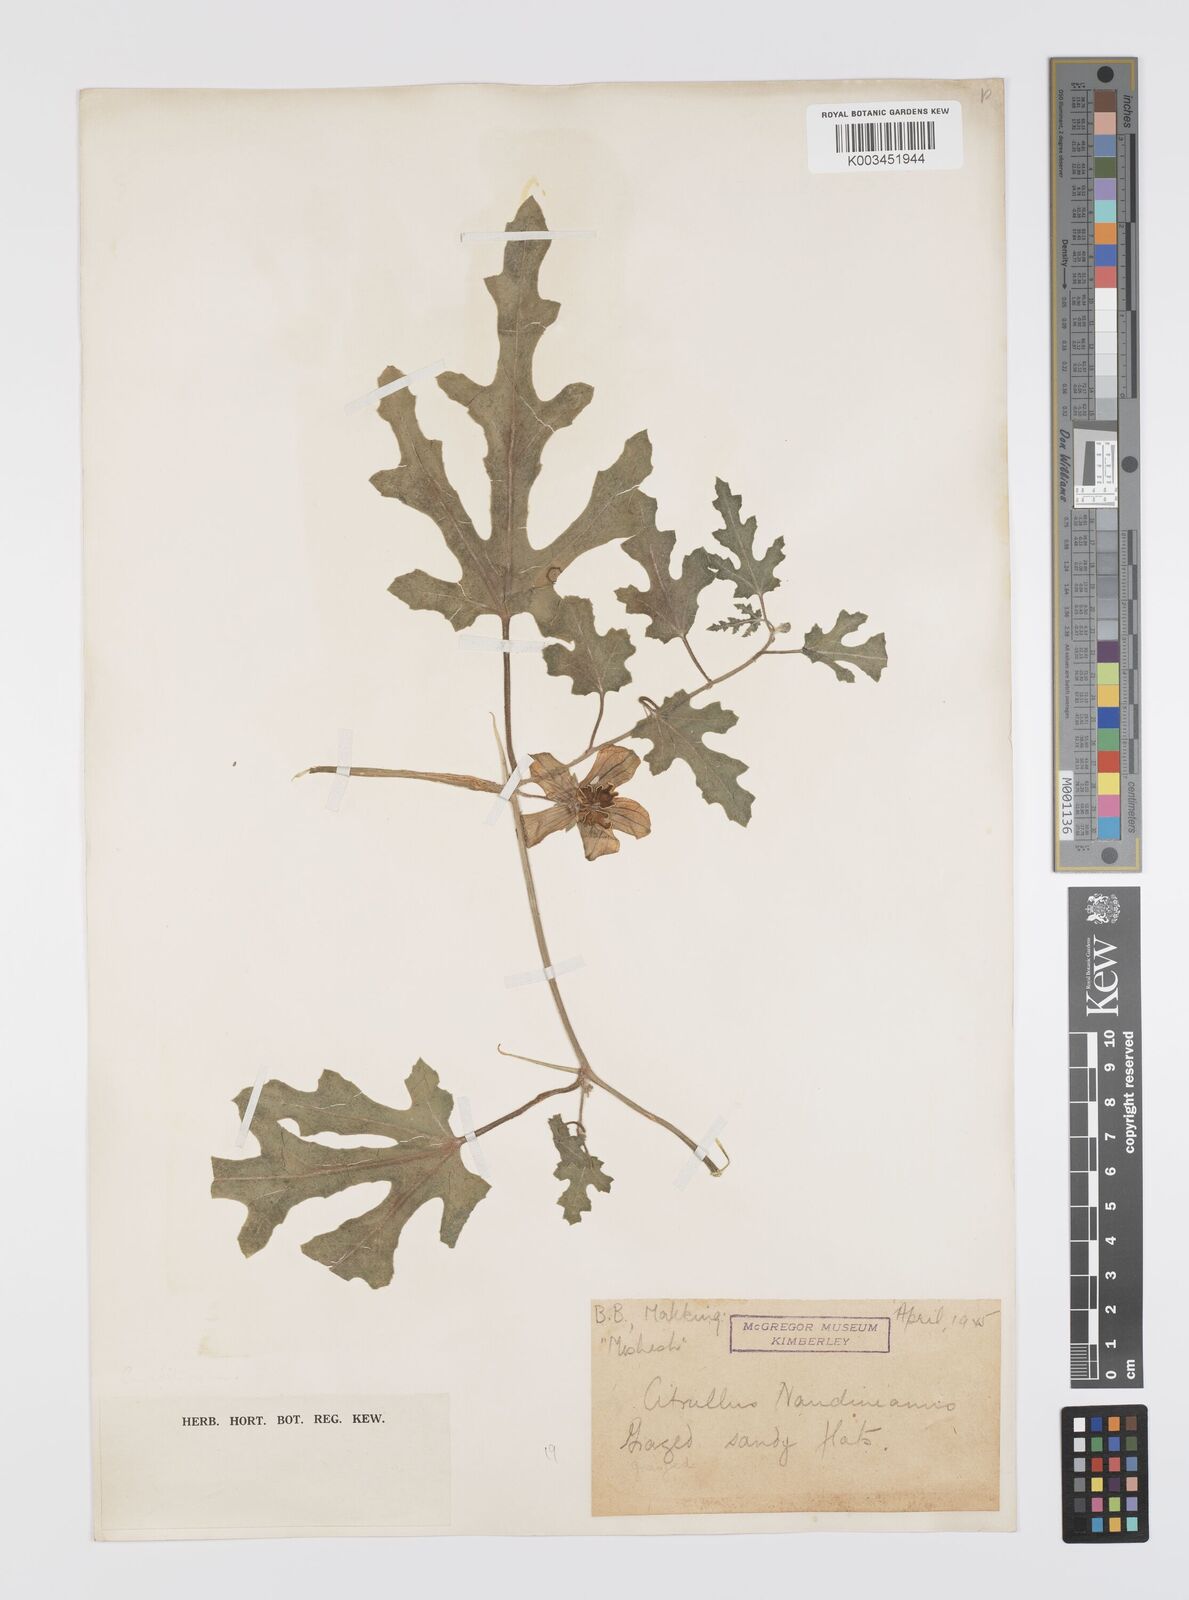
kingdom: Plantae
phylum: Tracheophyta
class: Magnoliopsida
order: Cucurbitales
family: Cucurbitaceae
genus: Citrullus
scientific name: Citrullus naudinianus
